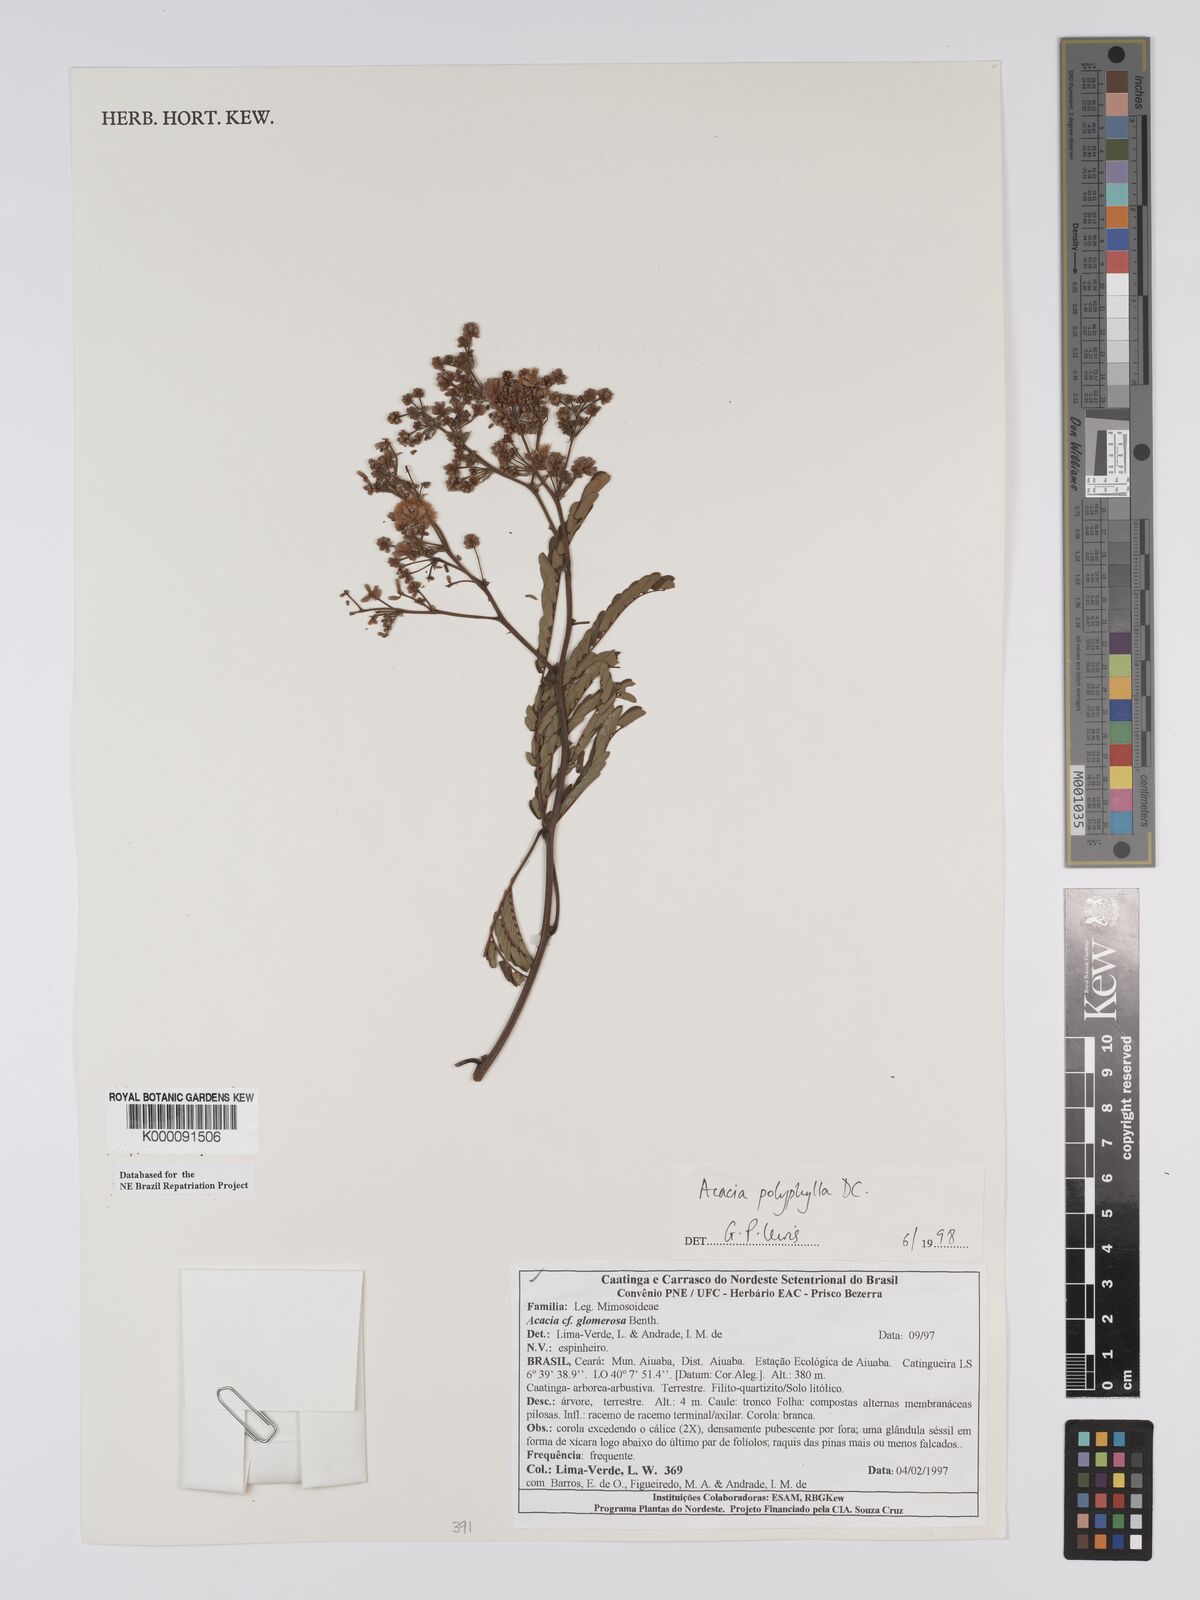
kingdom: Plantae
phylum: Tracheophyta
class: Magnoliopsida
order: Fabales
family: Fabaceae
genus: Senegalia
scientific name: Senegalia polyphylla
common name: White-tamarind
